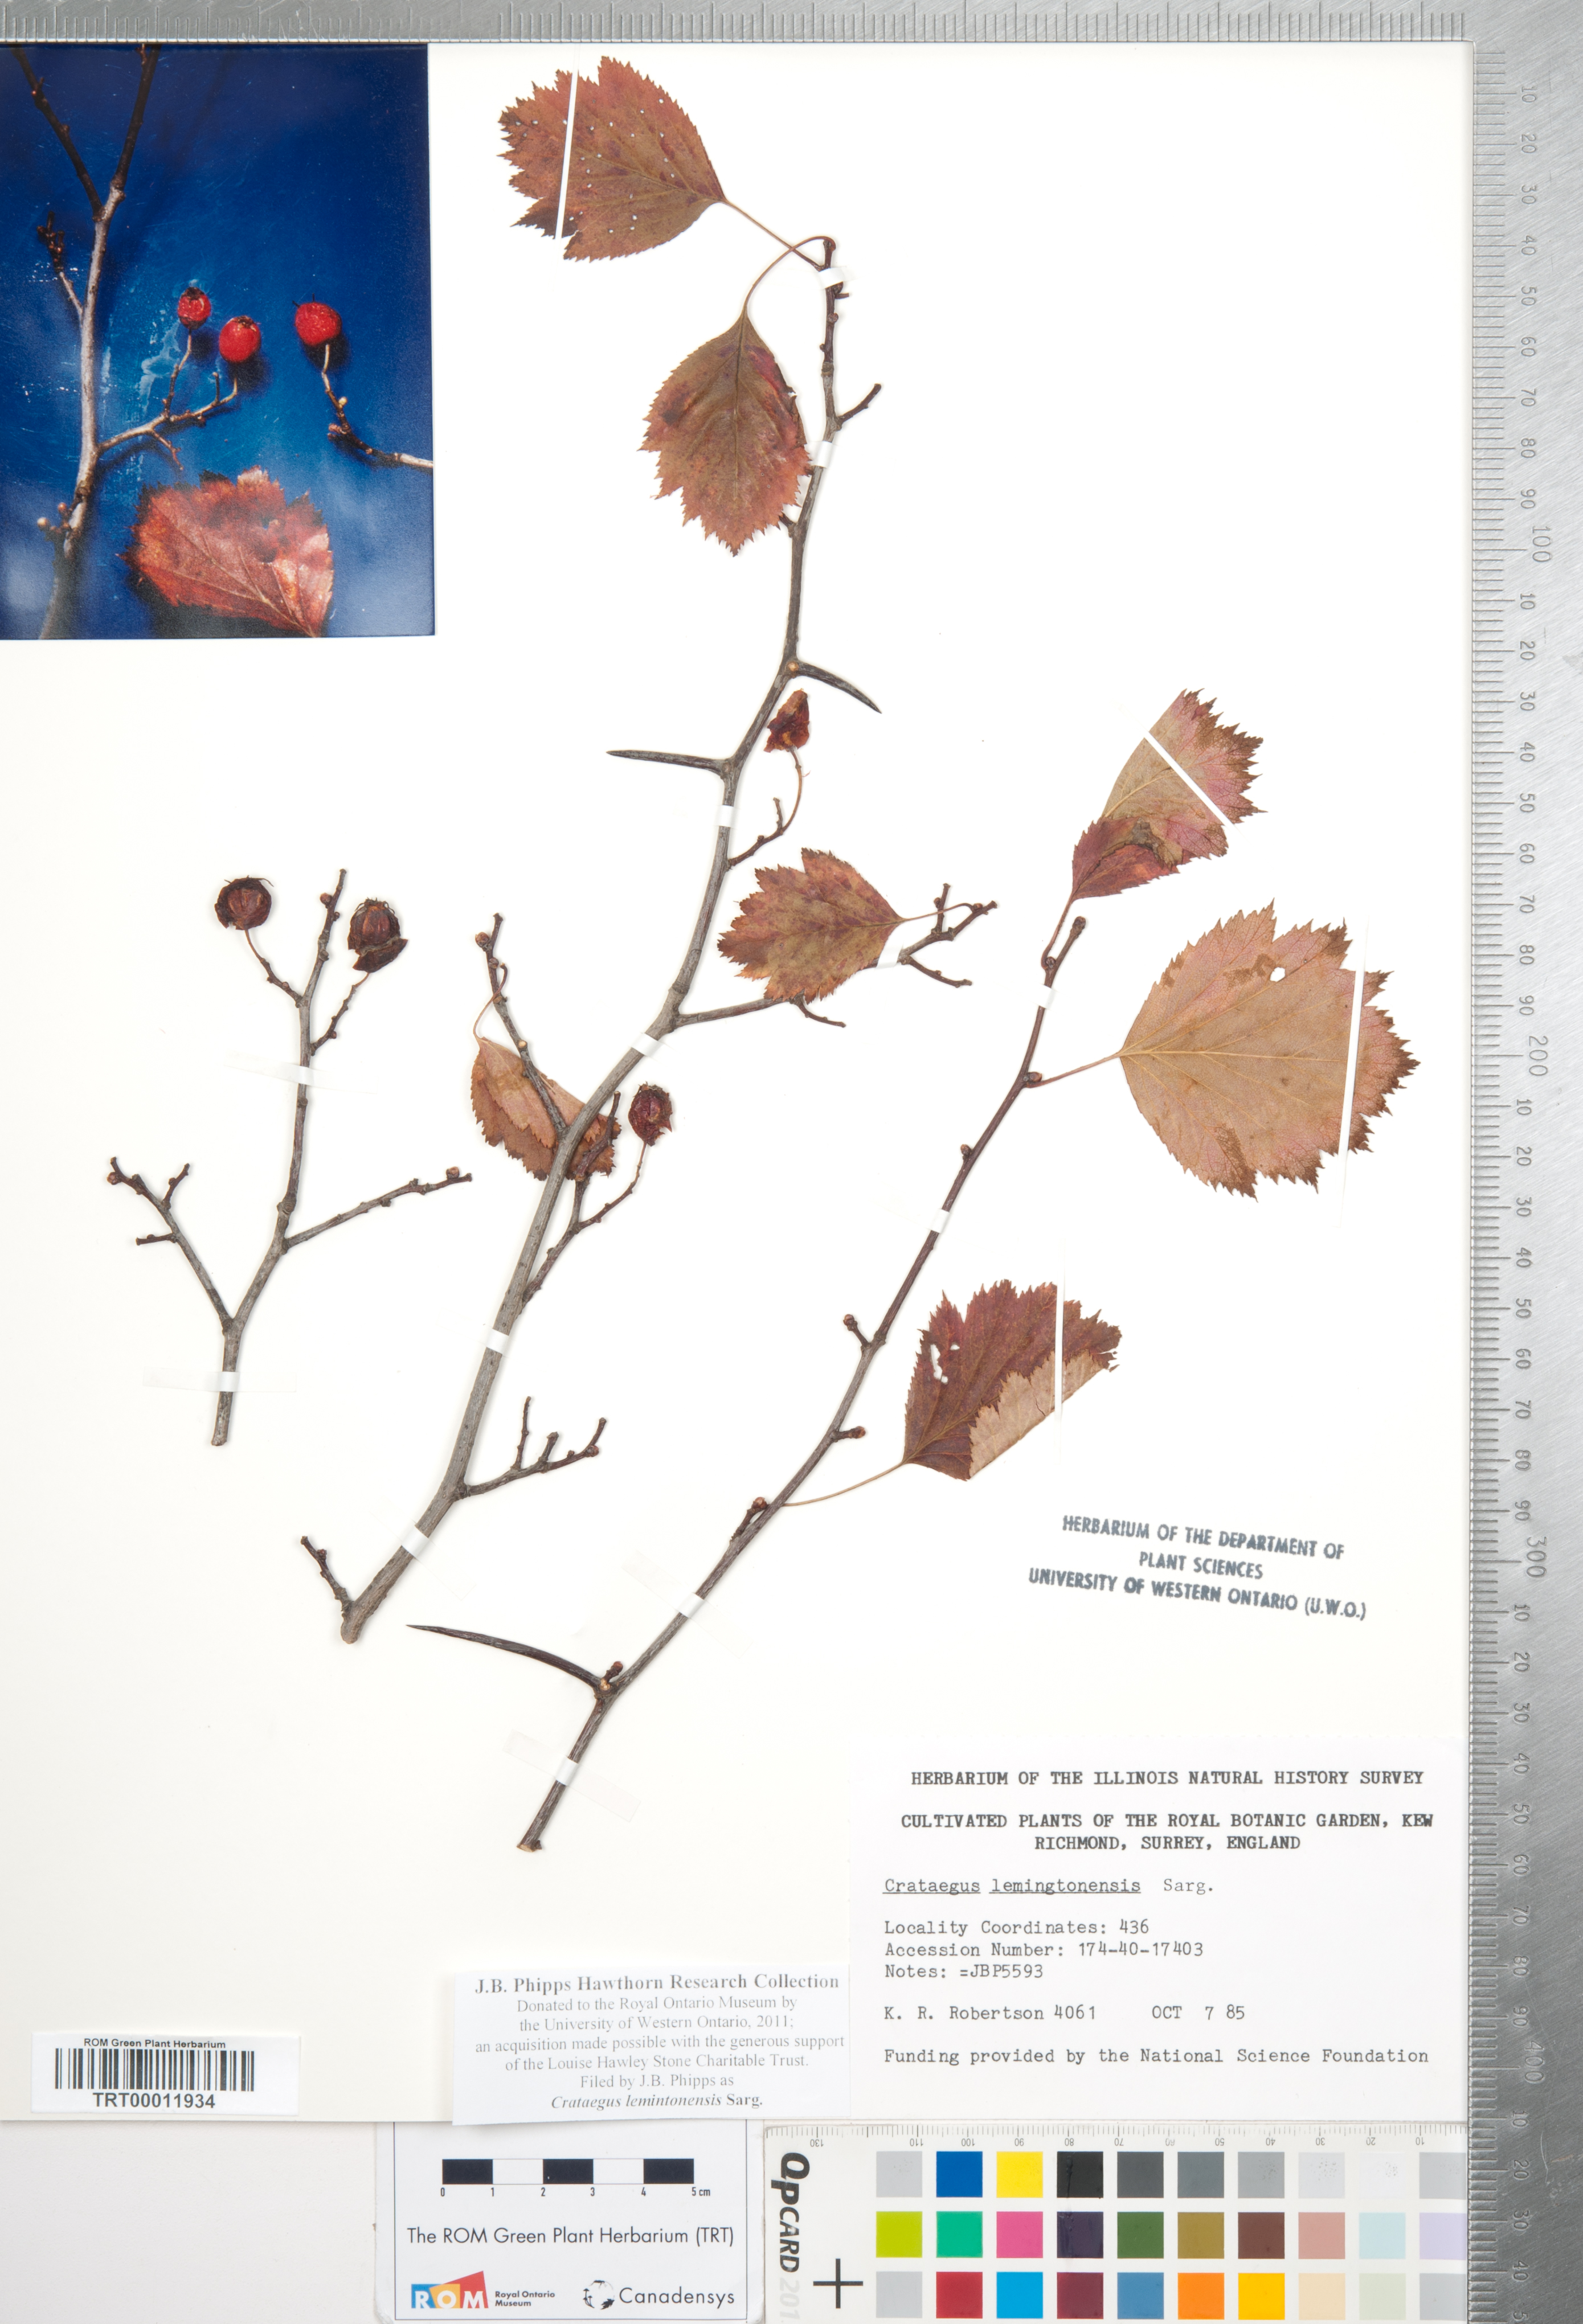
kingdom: Plantae
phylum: Tracheophyta
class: Magnoliopsida
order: Rosales
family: Rosaceae
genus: Crataegus
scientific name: Crataegus chrysocarpa
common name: Fire-berry hawthorn
